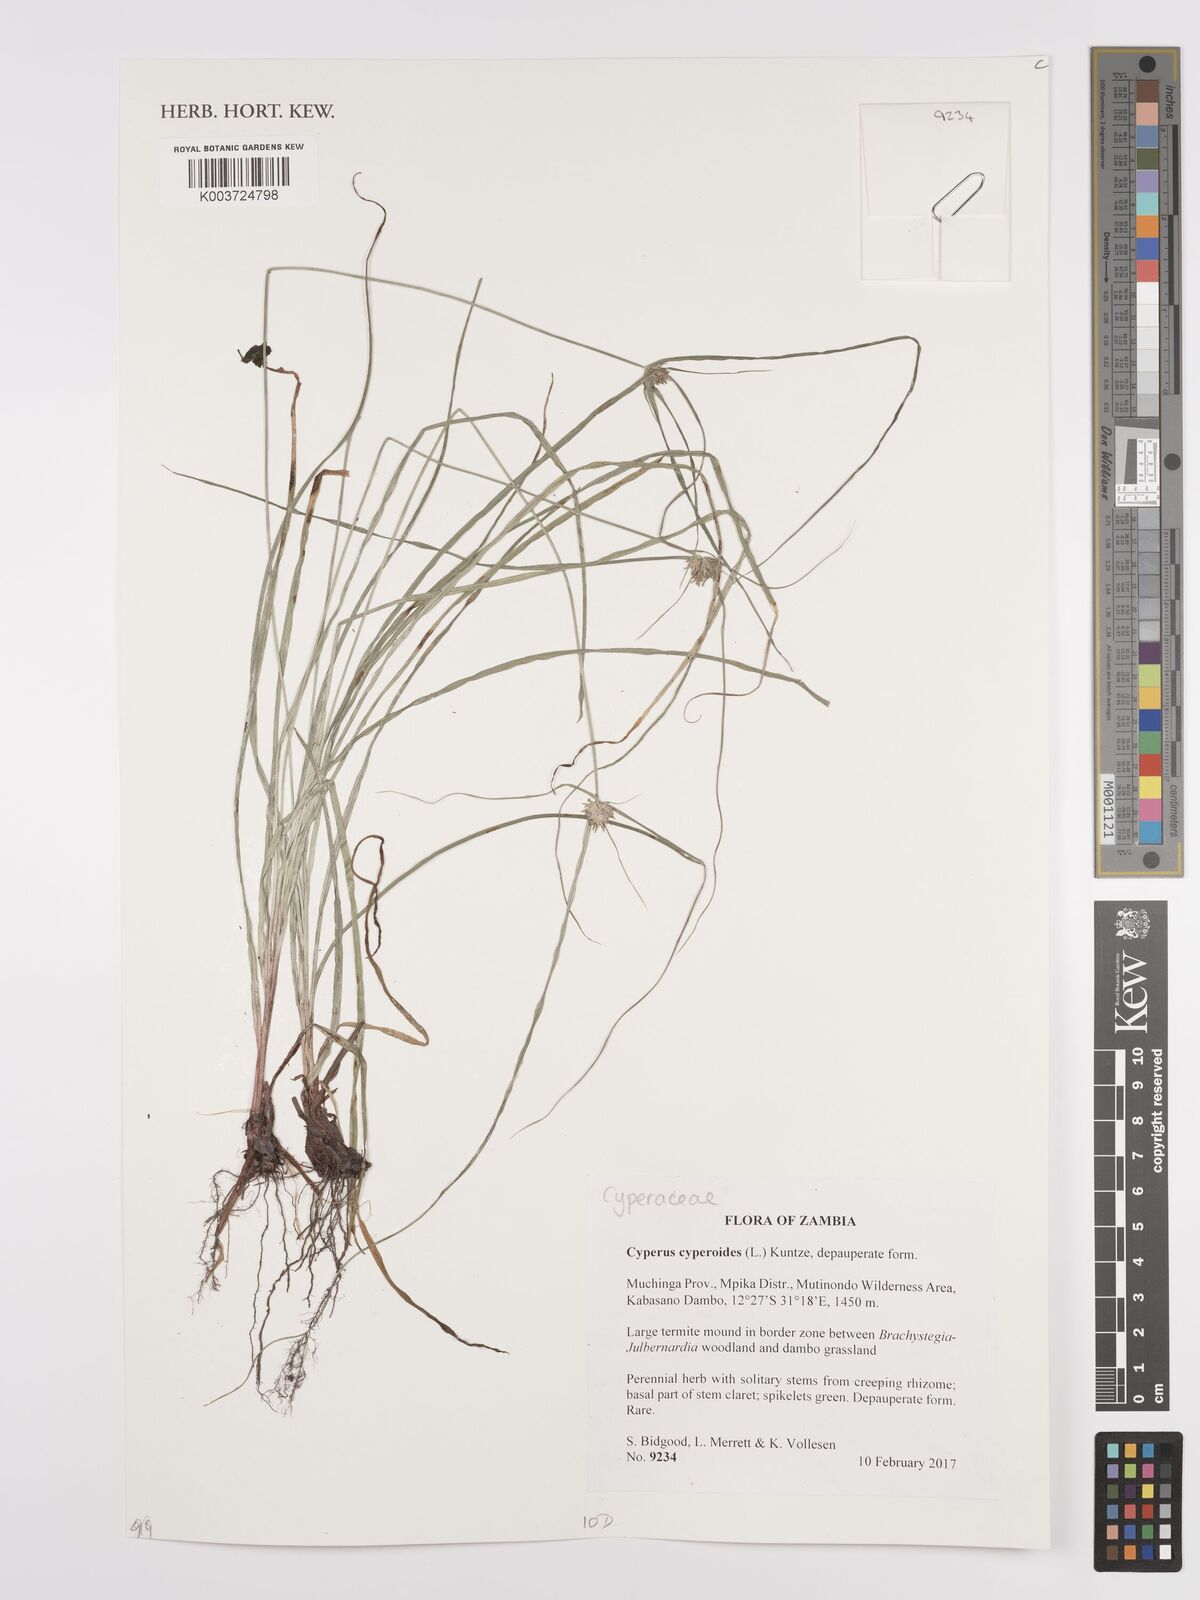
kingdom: Plantae
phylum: Tracheophyta
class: Liliopsida
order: Poales
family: Cyperaceae
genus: Cyperus
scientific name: Cyperus cyperoides
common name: Pacific island flat sedge
